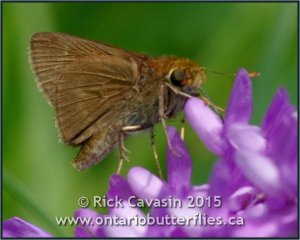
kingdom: Animalia
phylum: Arthropoda
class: Insecta
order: Lepidoptera
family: Hesperiidae
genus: Euphyes
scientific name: Euphyes vestris
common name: Dun Skipper
